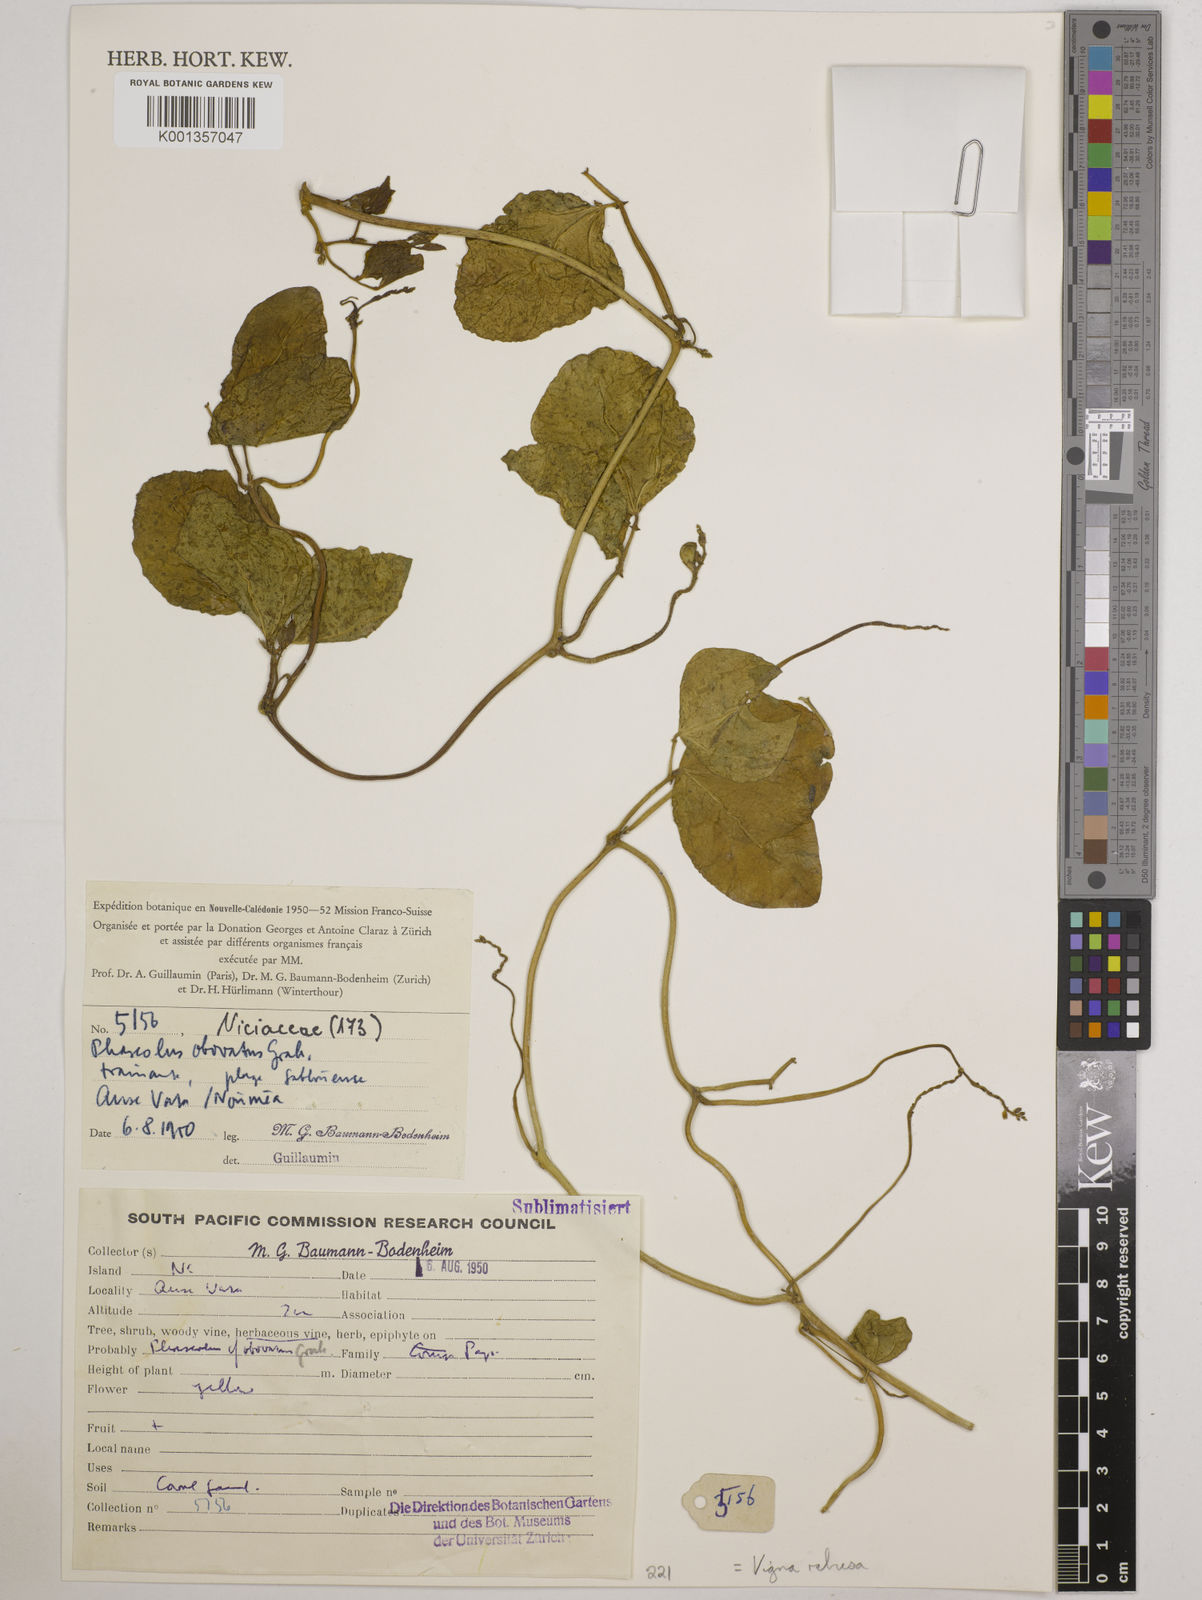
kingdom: Plantae
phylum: Tracheophyta
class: Magnoliopsida
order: Fabales
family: Fabaceae
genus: Vigna
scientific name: Vigna marina
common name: Dune-bean
